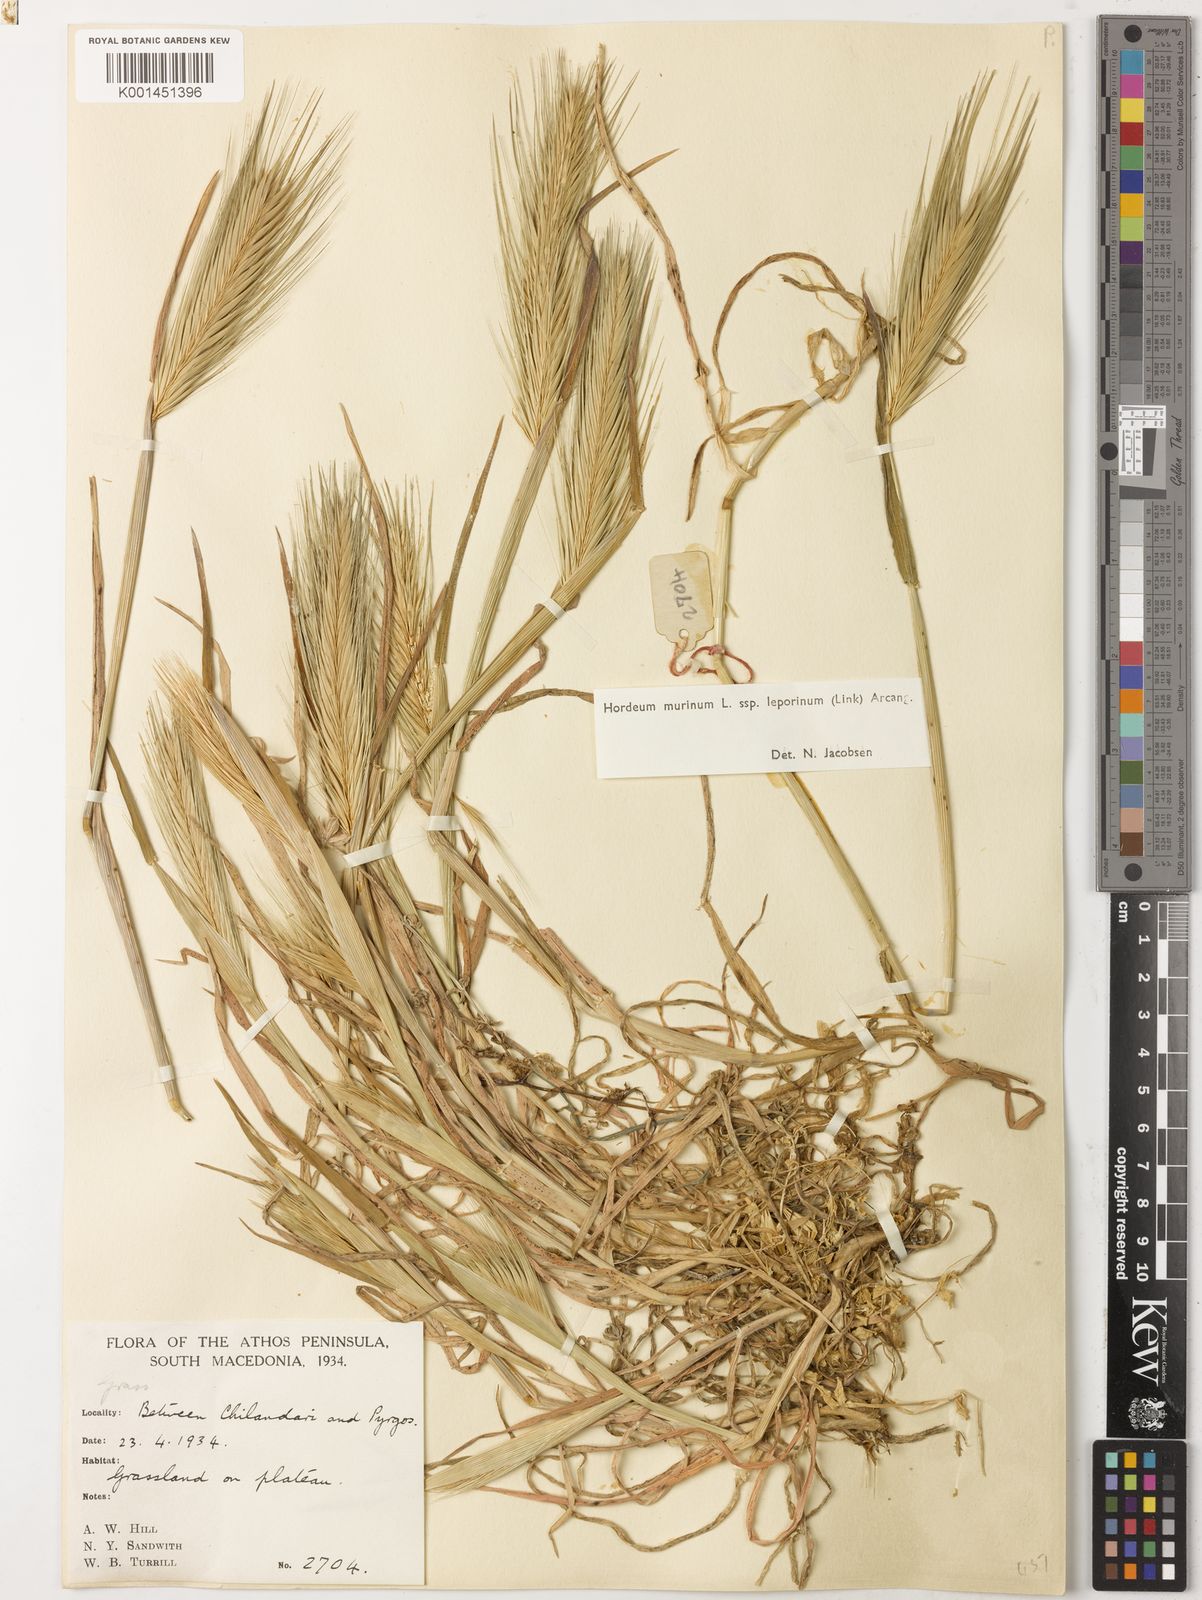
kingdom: Plantae
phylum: Tracheophyta
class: Liliopsida
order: Poales
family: Poaceae
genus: Hordeum
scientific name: Hordeum murinum
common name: Wall barley
